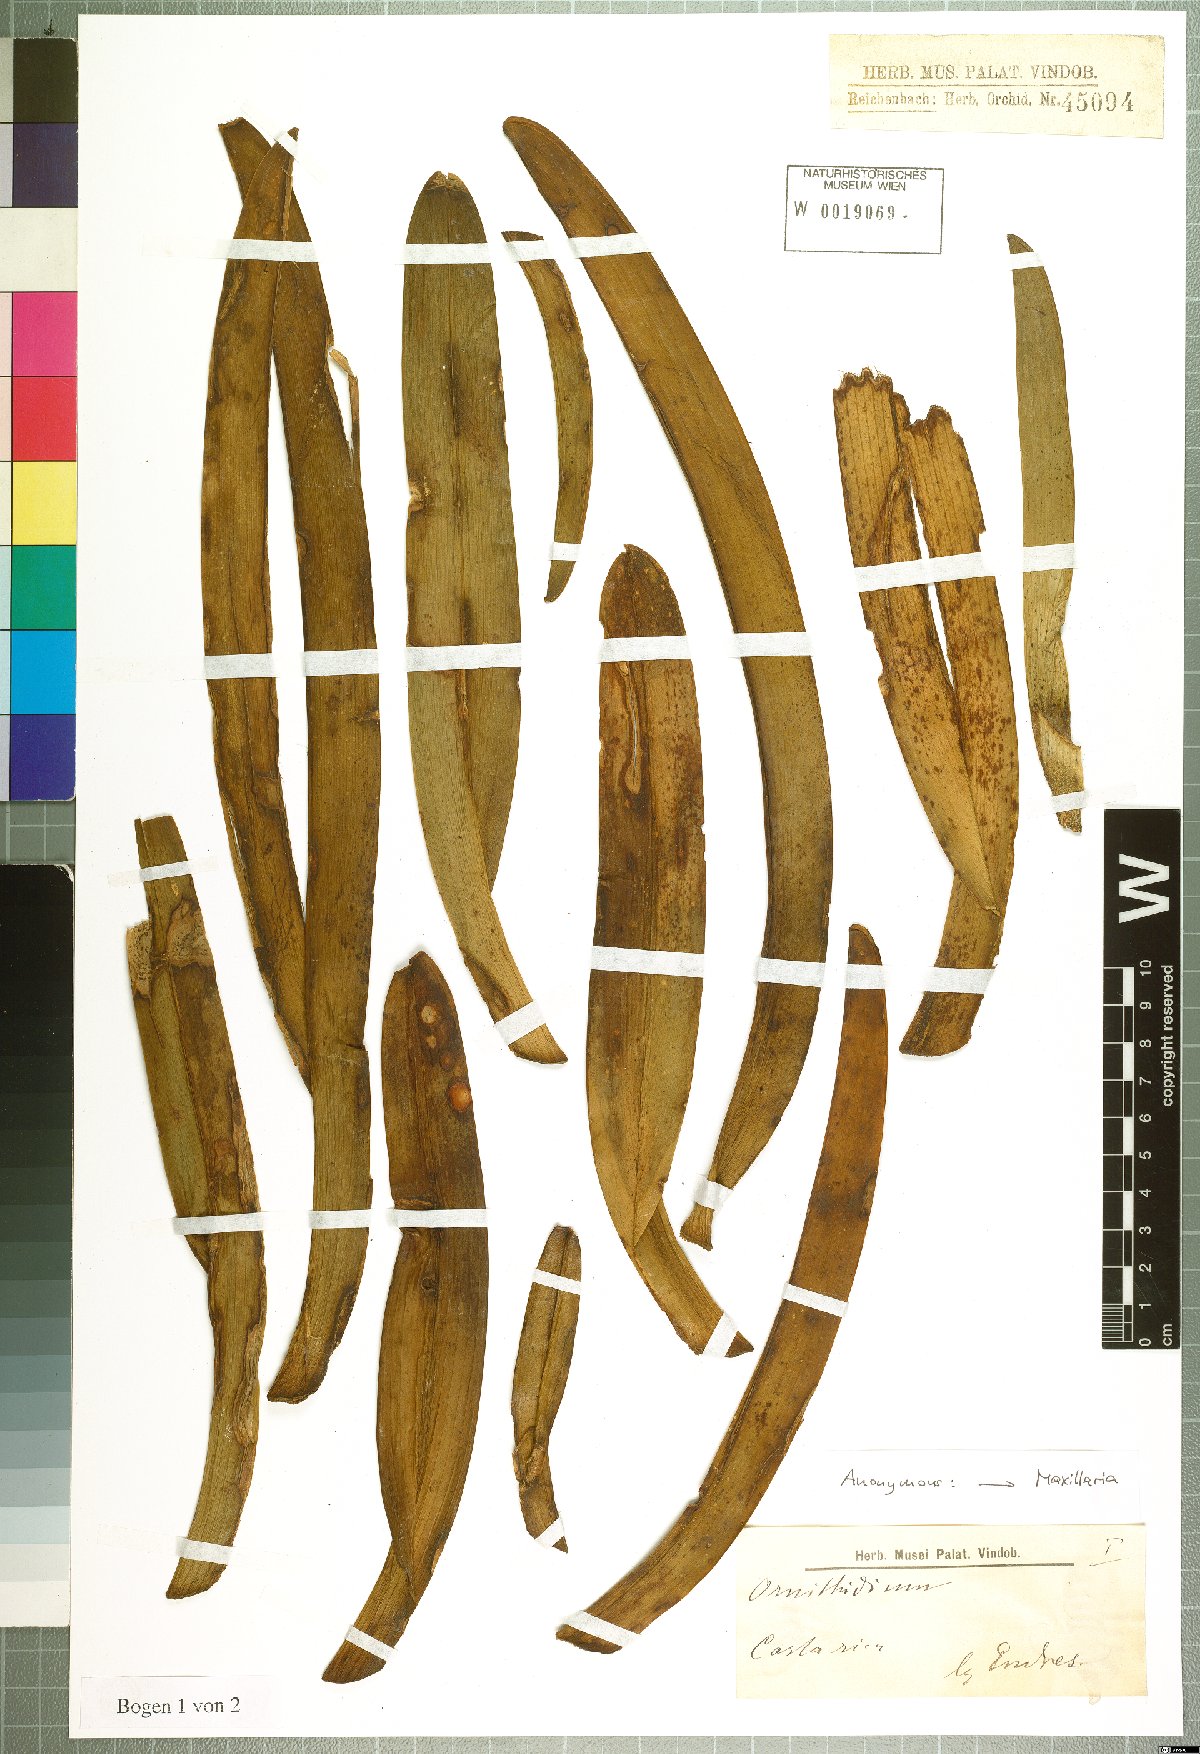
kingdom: Plantae
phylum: Tracheophyta
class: Liliopsida
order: Asparagales
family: Orchidaceae
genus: Maxillaria
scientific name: Maxillaria
